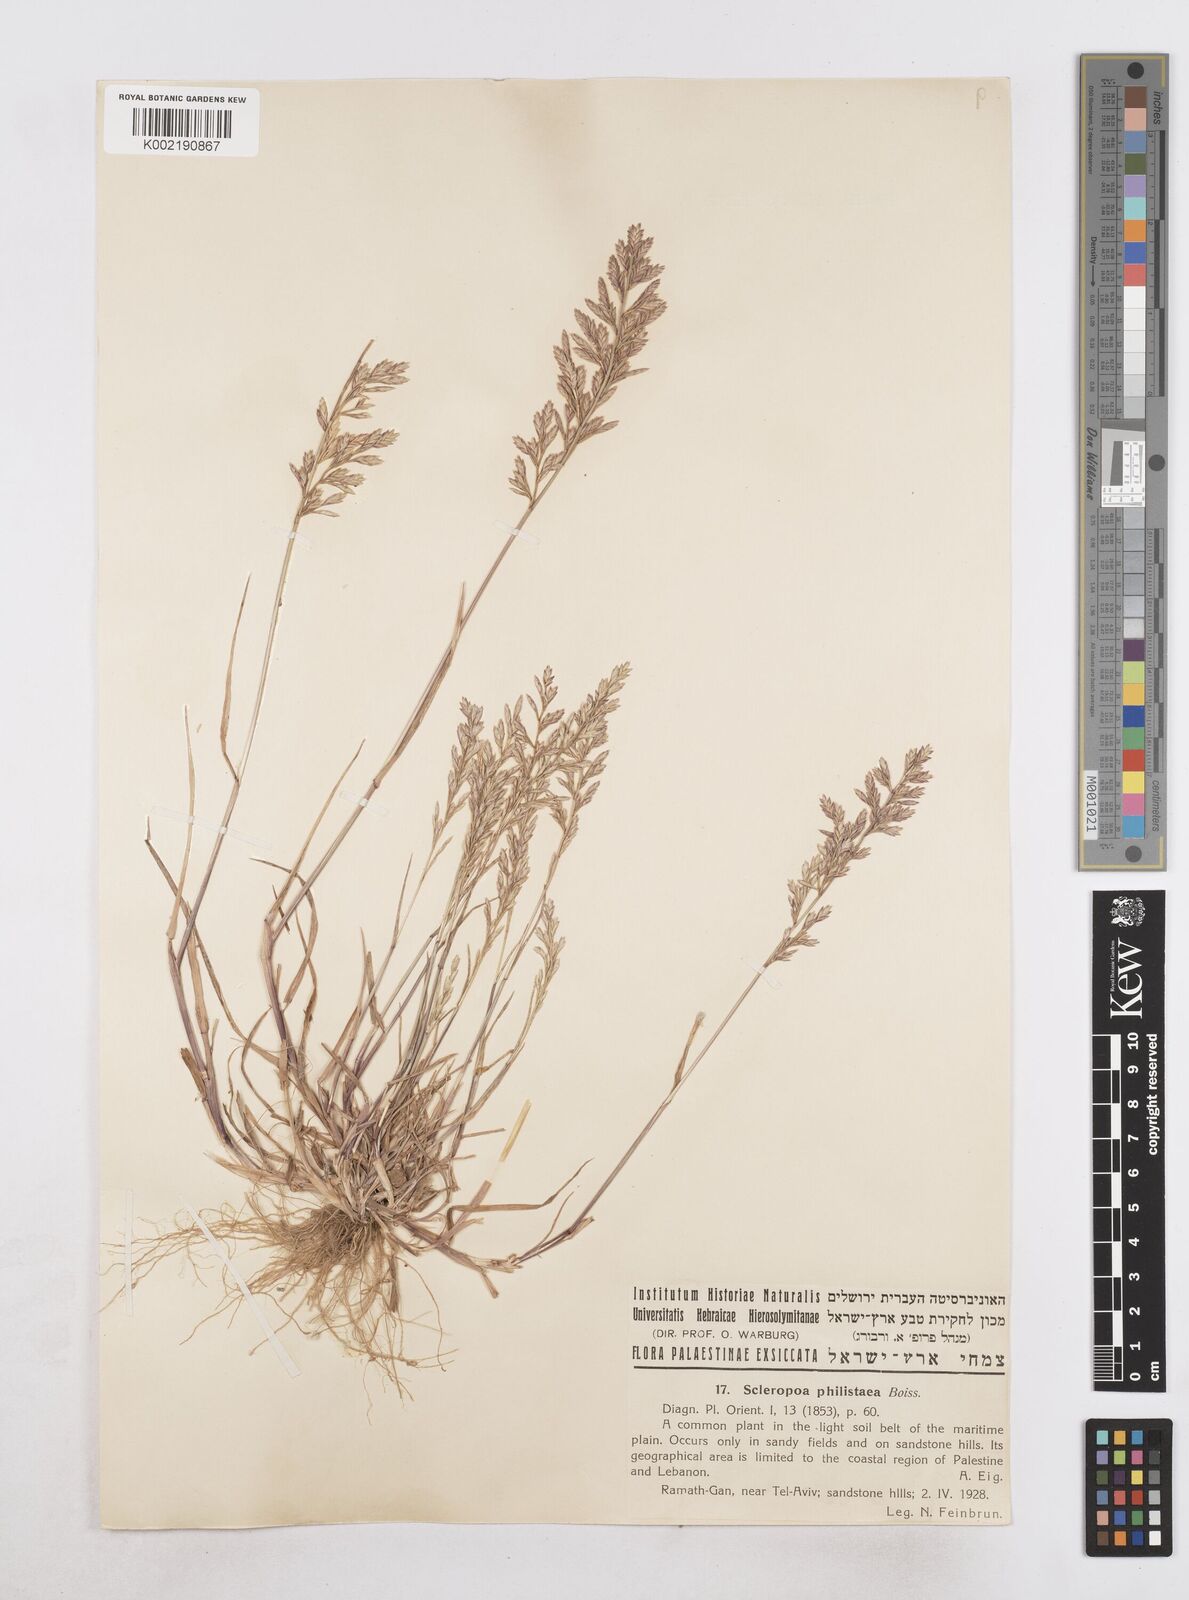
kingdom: Plantae
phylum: Tracheophyta
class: Liliopsida
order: Poales
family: Poaceae
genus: Desmazeria
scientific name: Desmazeria philistaea
